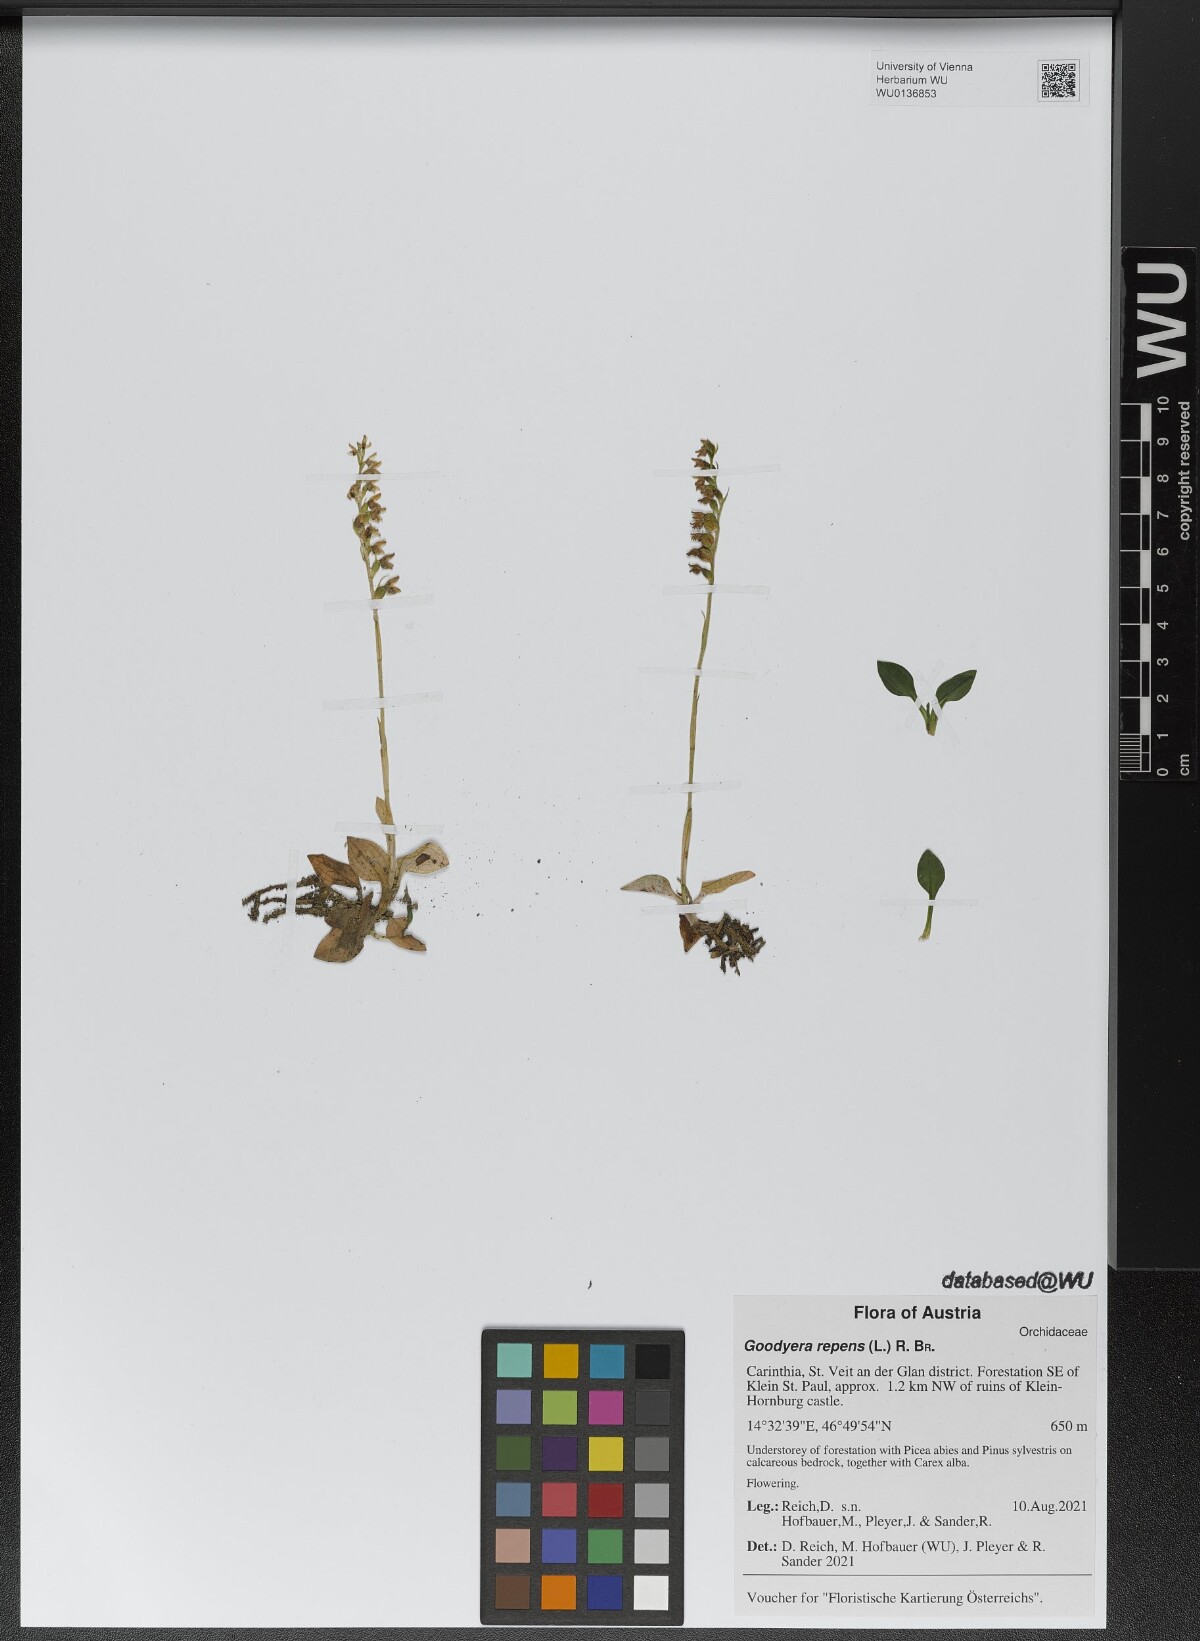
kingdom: Plantae
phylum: Tracheophyta
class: Liliopsida
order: Asparagales
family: Orchidaceae
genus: Goodyera
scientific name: Goodyera repens
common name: Creeping lady's-tresses
